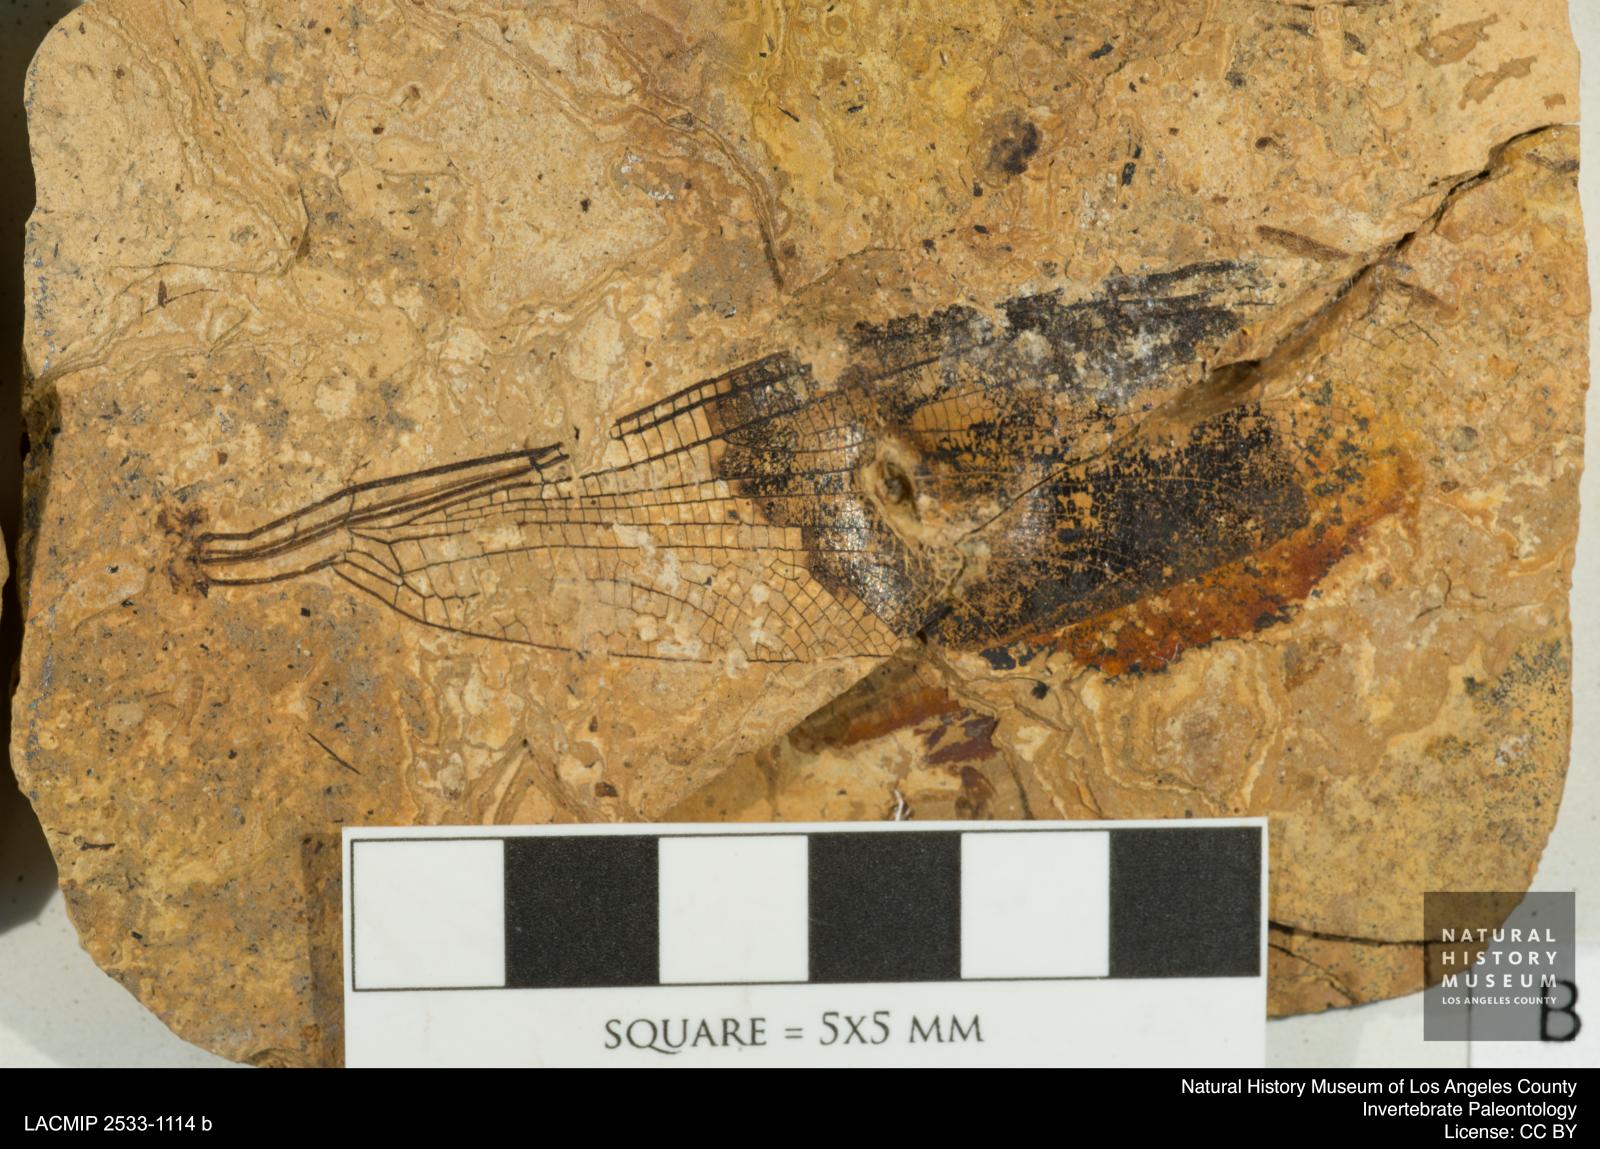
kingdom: Animalia
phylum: Arthropoda
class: Insecta
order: Odonata
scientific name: Odonata
